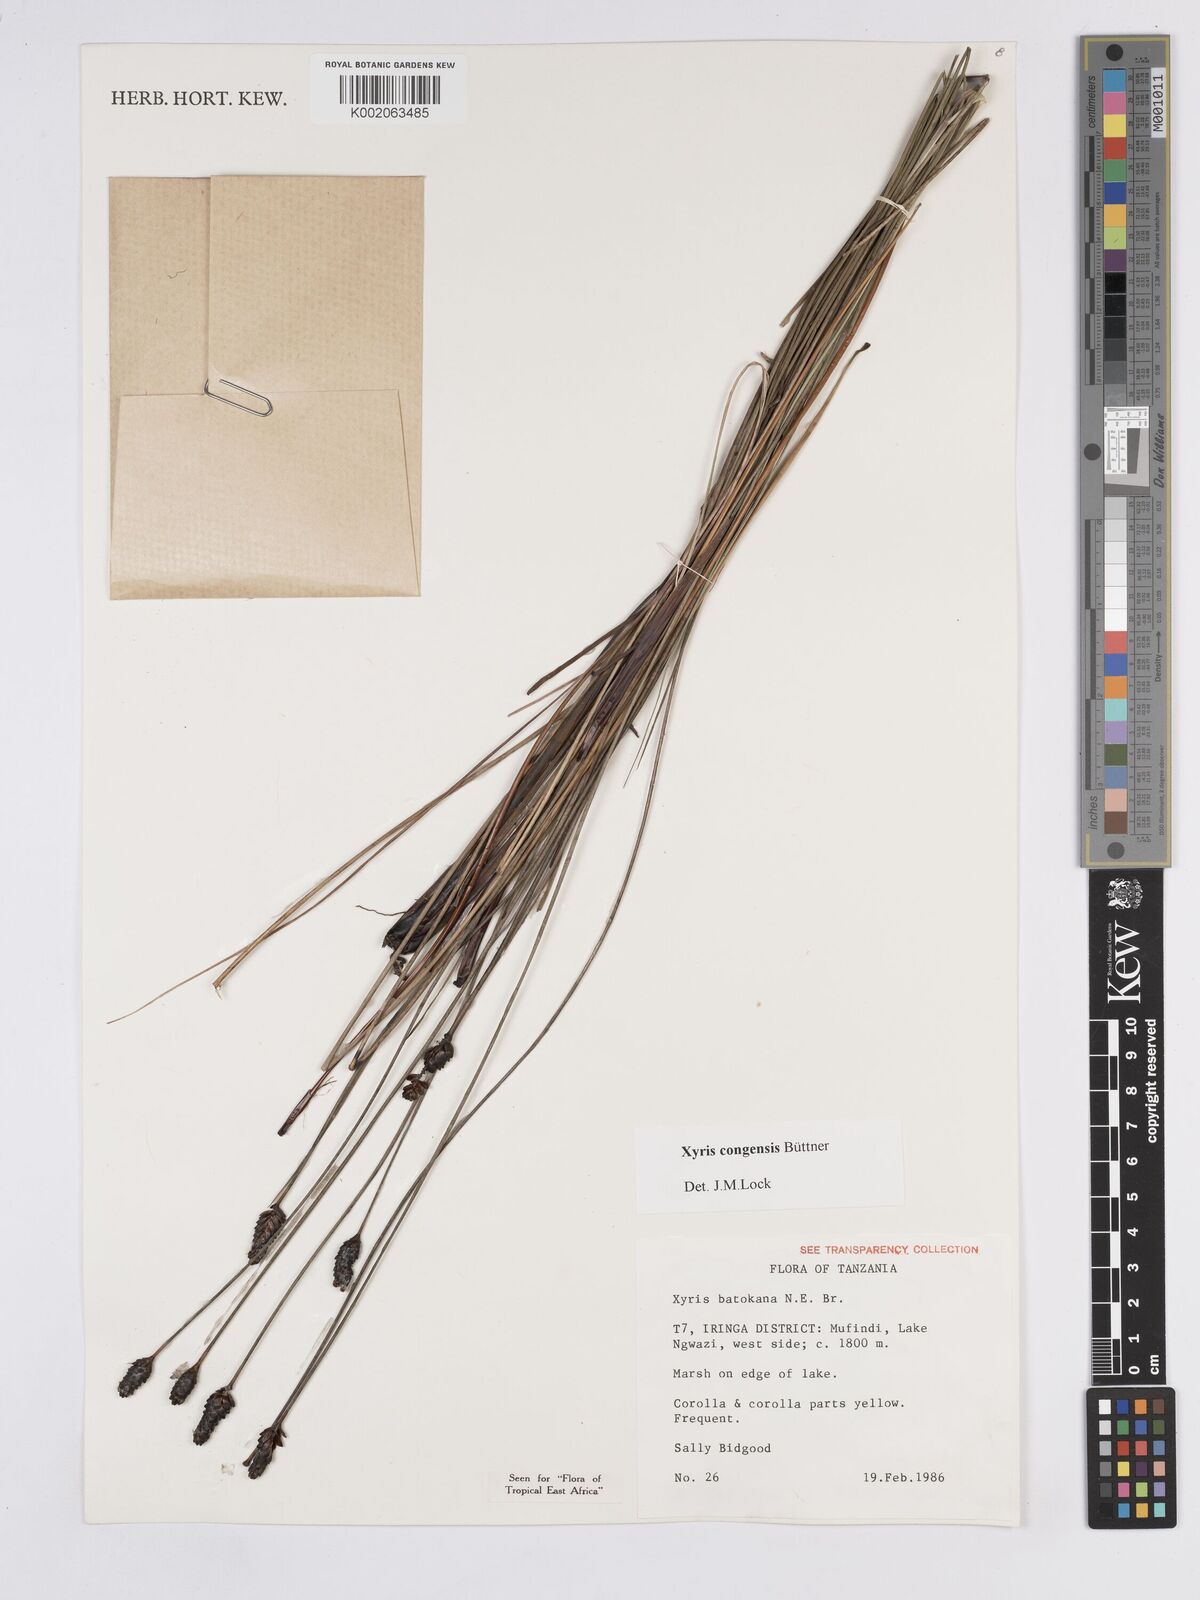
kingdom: Plantae
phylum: Tracheophyta
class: Liliopsida
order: Poales
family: Xyridaceae
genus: Xyris
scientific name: Xyris congensis
